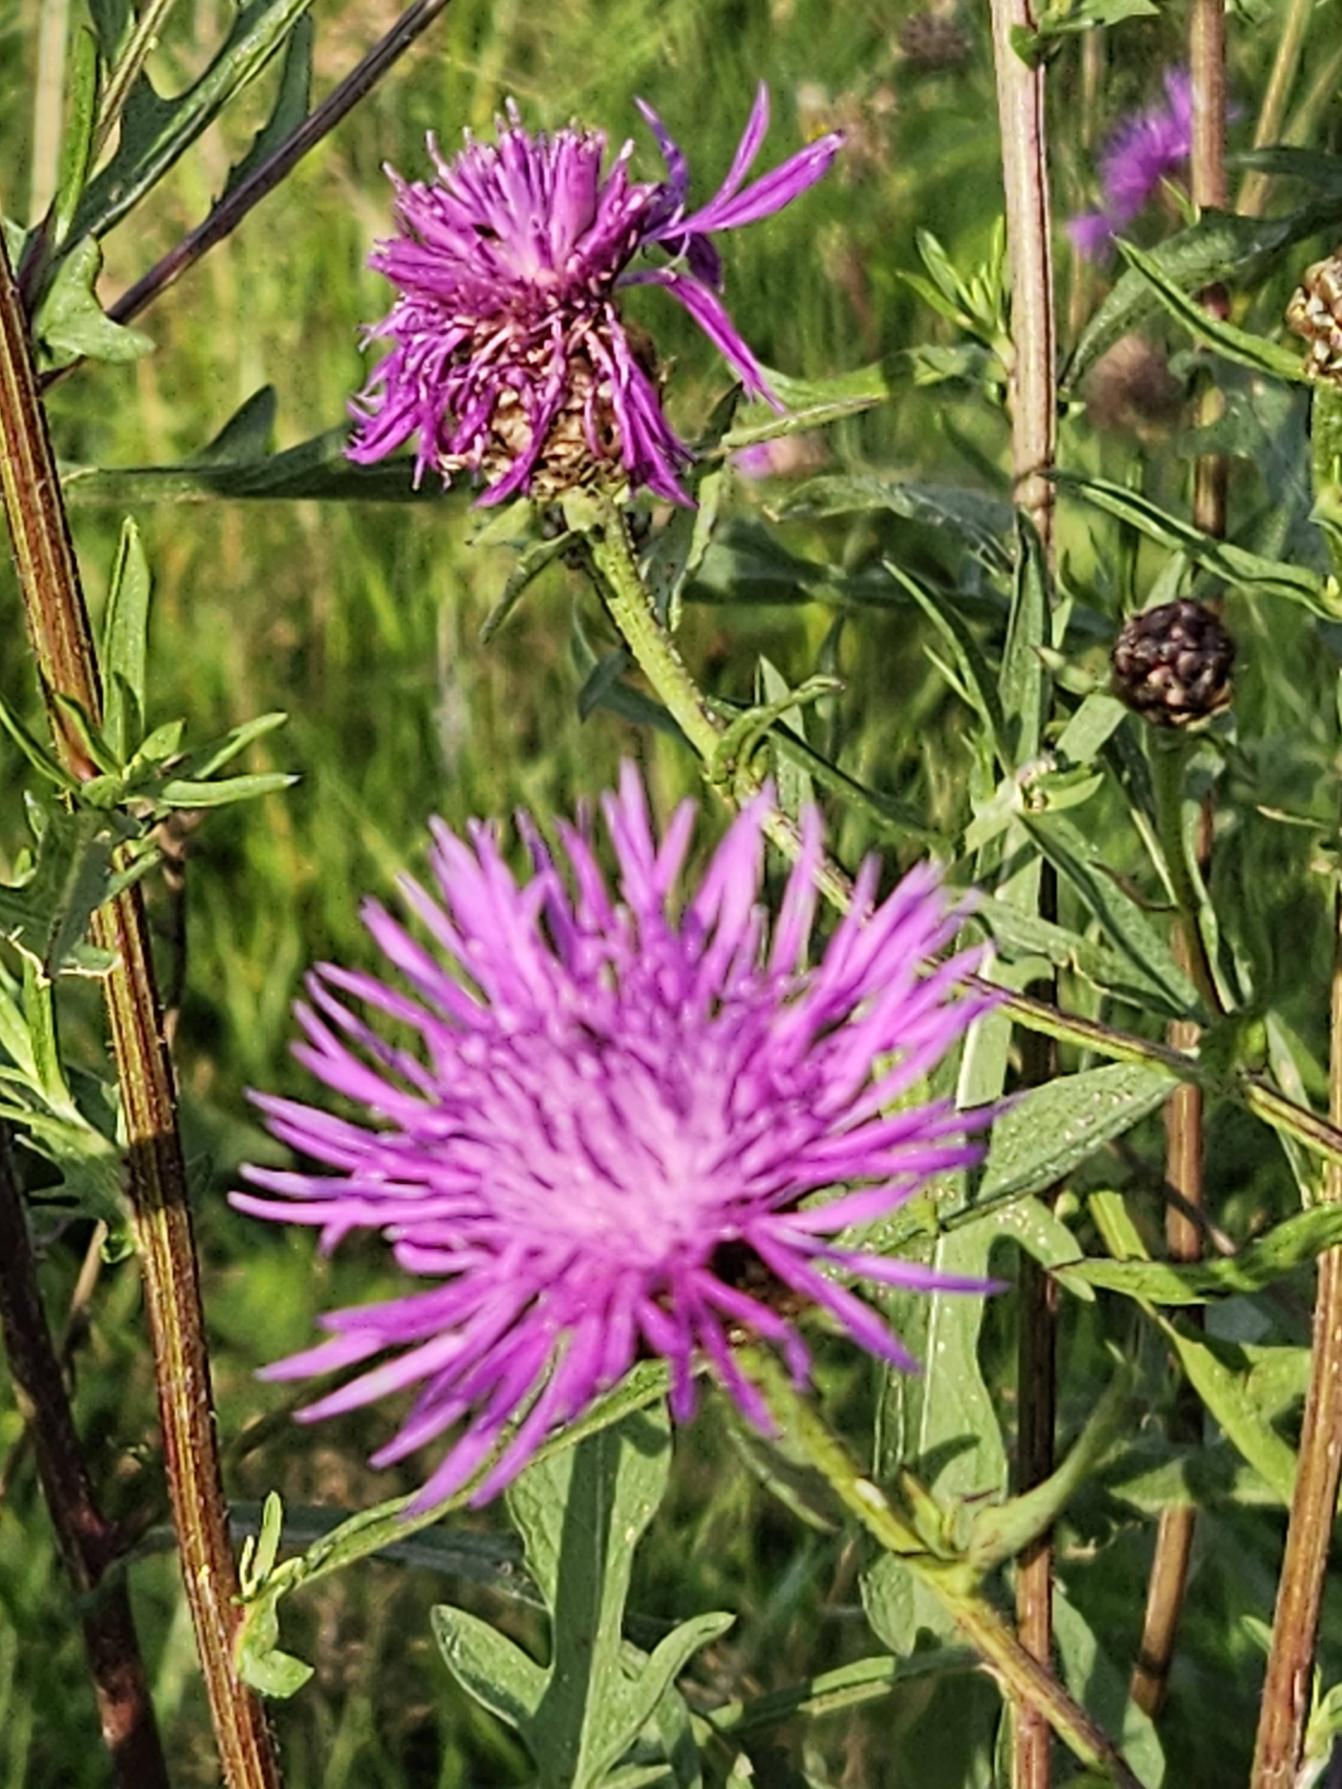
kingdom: Plantae
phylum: Tracheophyta
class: Magnoliopsida
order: Asterales
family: Asteraceae
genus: Centaurea
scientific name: Centaurea jacea
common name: Almindelig knopurt
